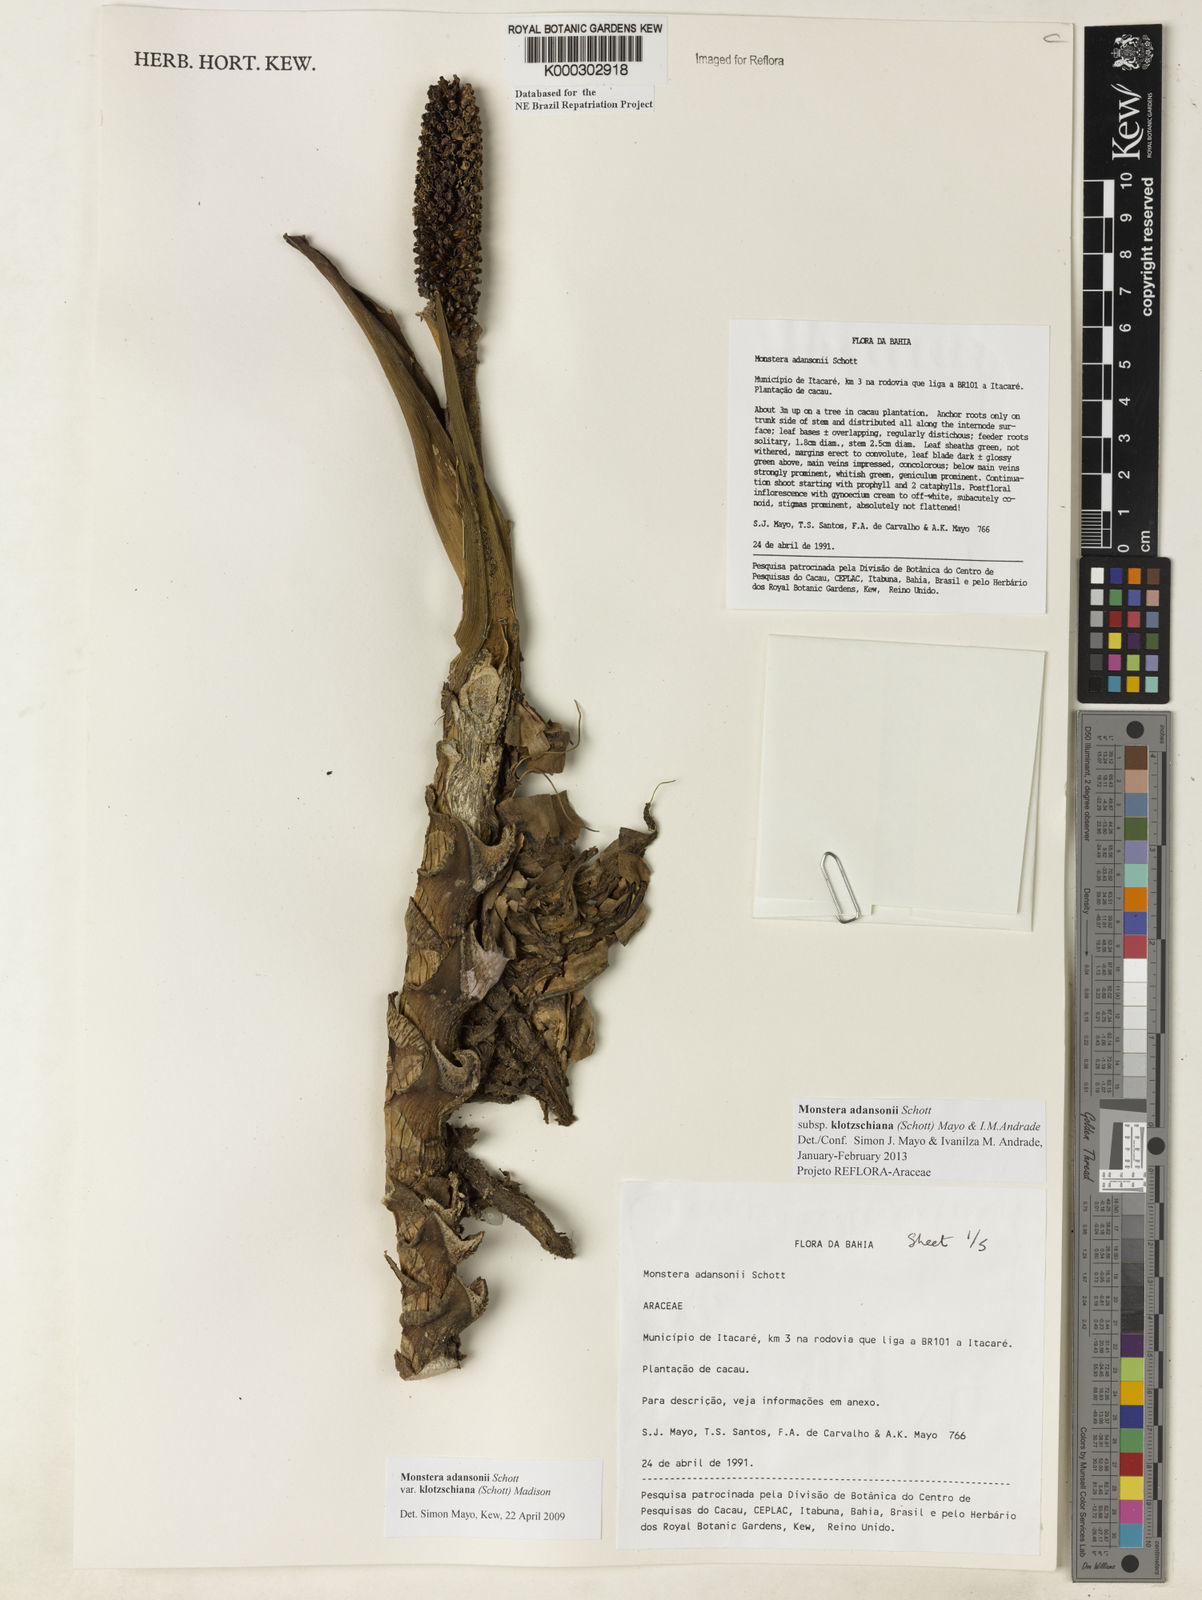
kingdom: Plantae
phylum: Tracheophyta
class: Liliopsida
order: Alismatales
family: Araceae
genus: Monstera
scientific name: Monstera adansonii
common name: Tarovine
